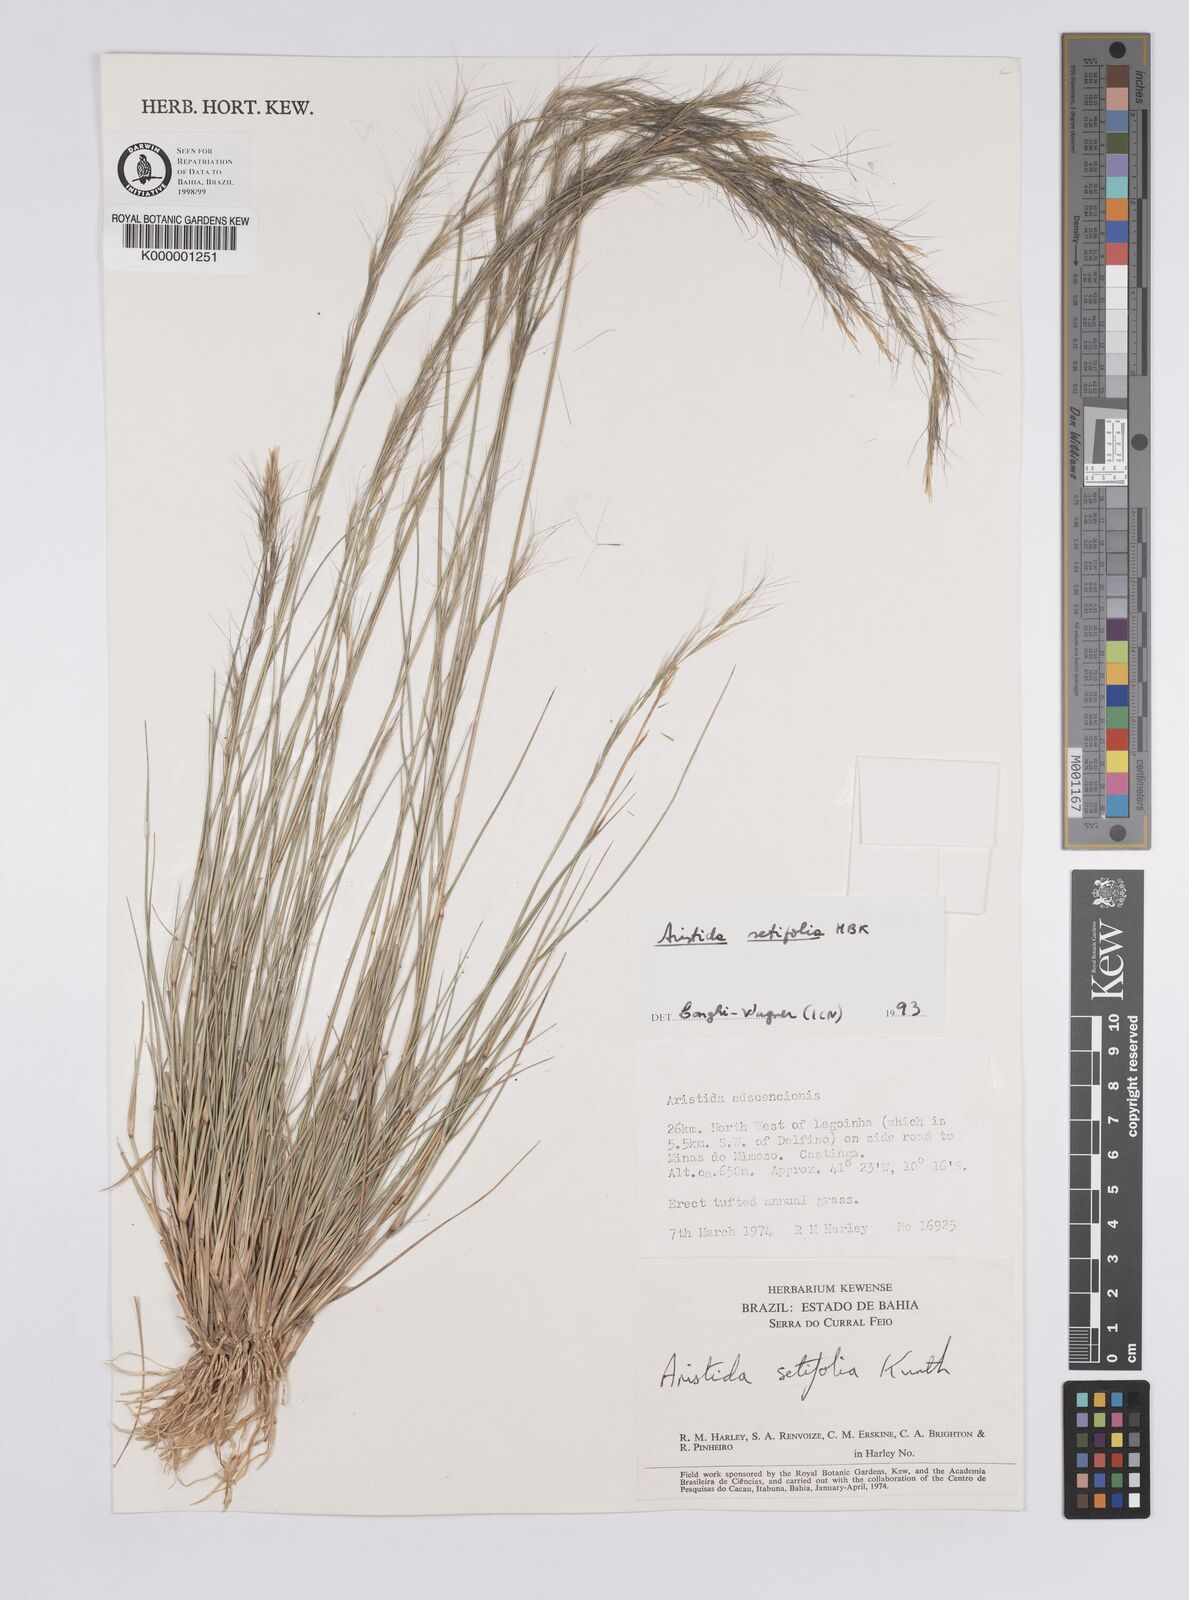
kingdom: Plantae
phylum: Tracheophyta
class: Liliopsida
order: Poales
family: Poaceae
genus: Aristida
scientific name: Aristida setifolia
